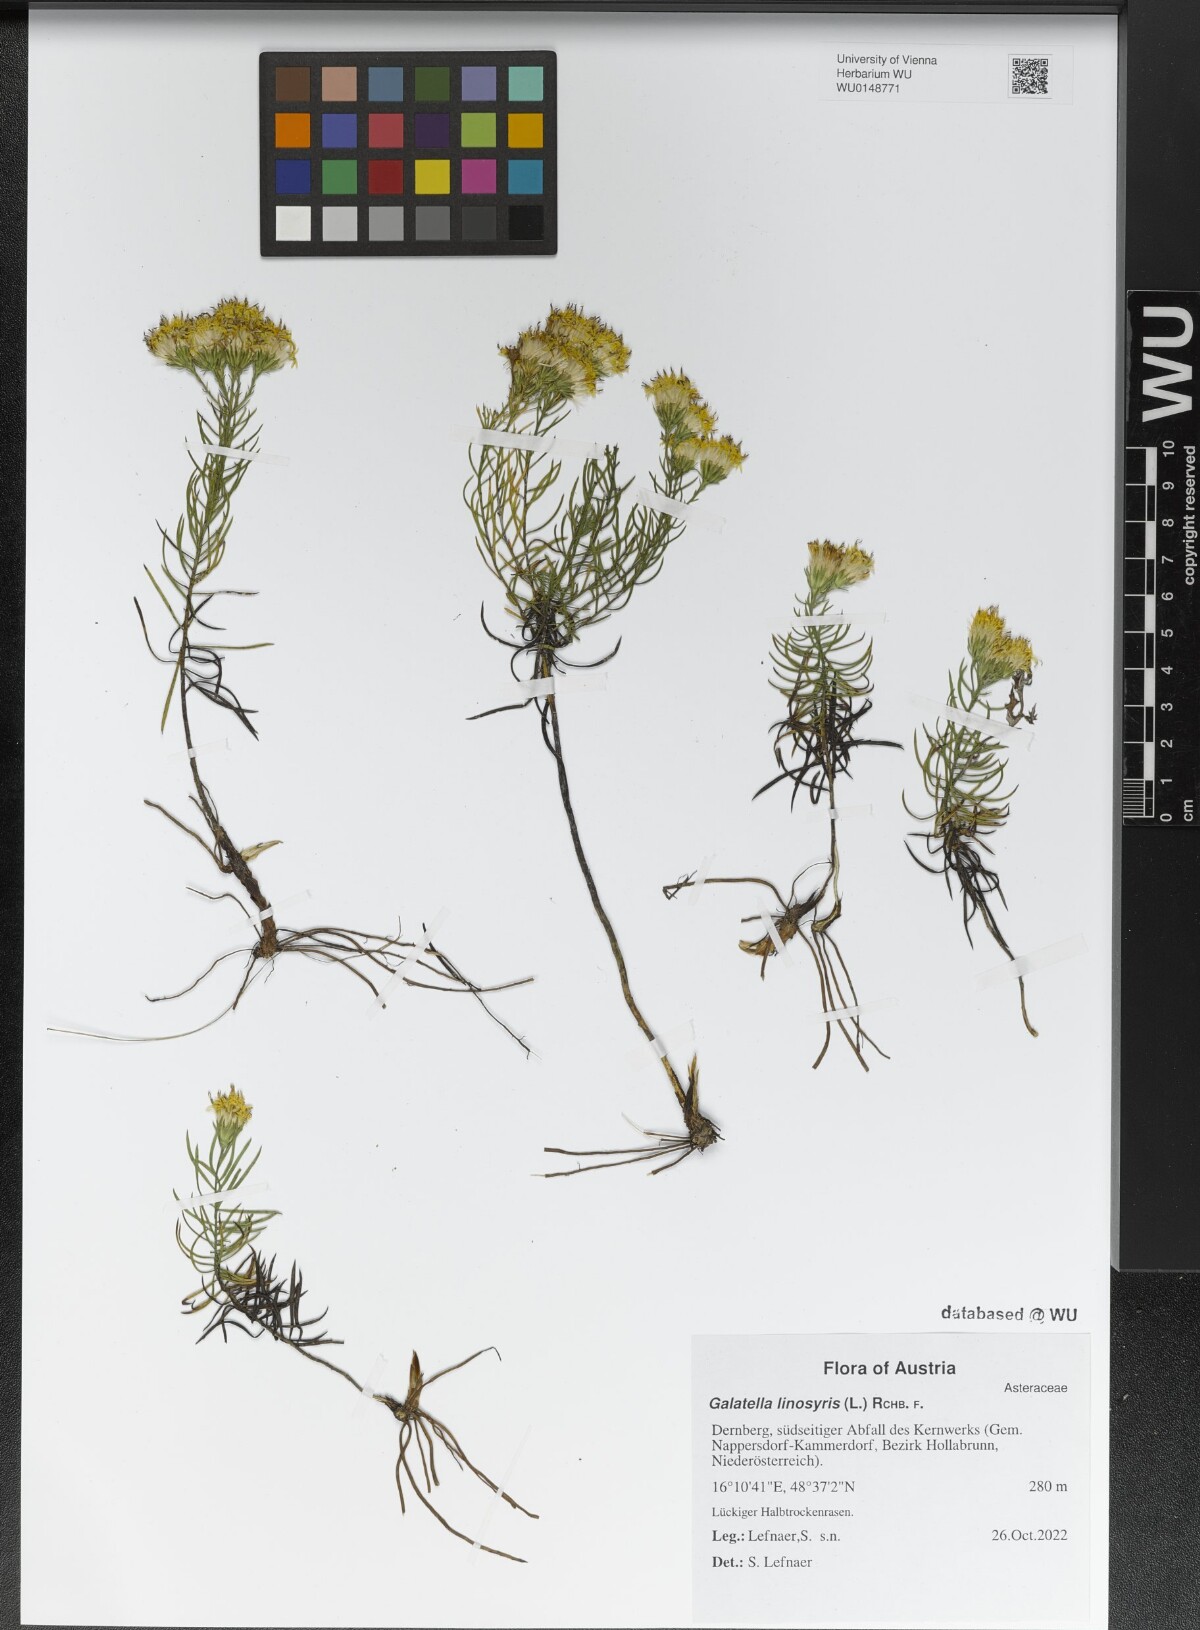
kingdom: Plantae
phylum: Tracheophyta
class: Magnoliopsida
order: Asterales
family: Asteraceae
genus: Galatella
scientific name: Galatella linosyris
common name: Goldilocks aster
